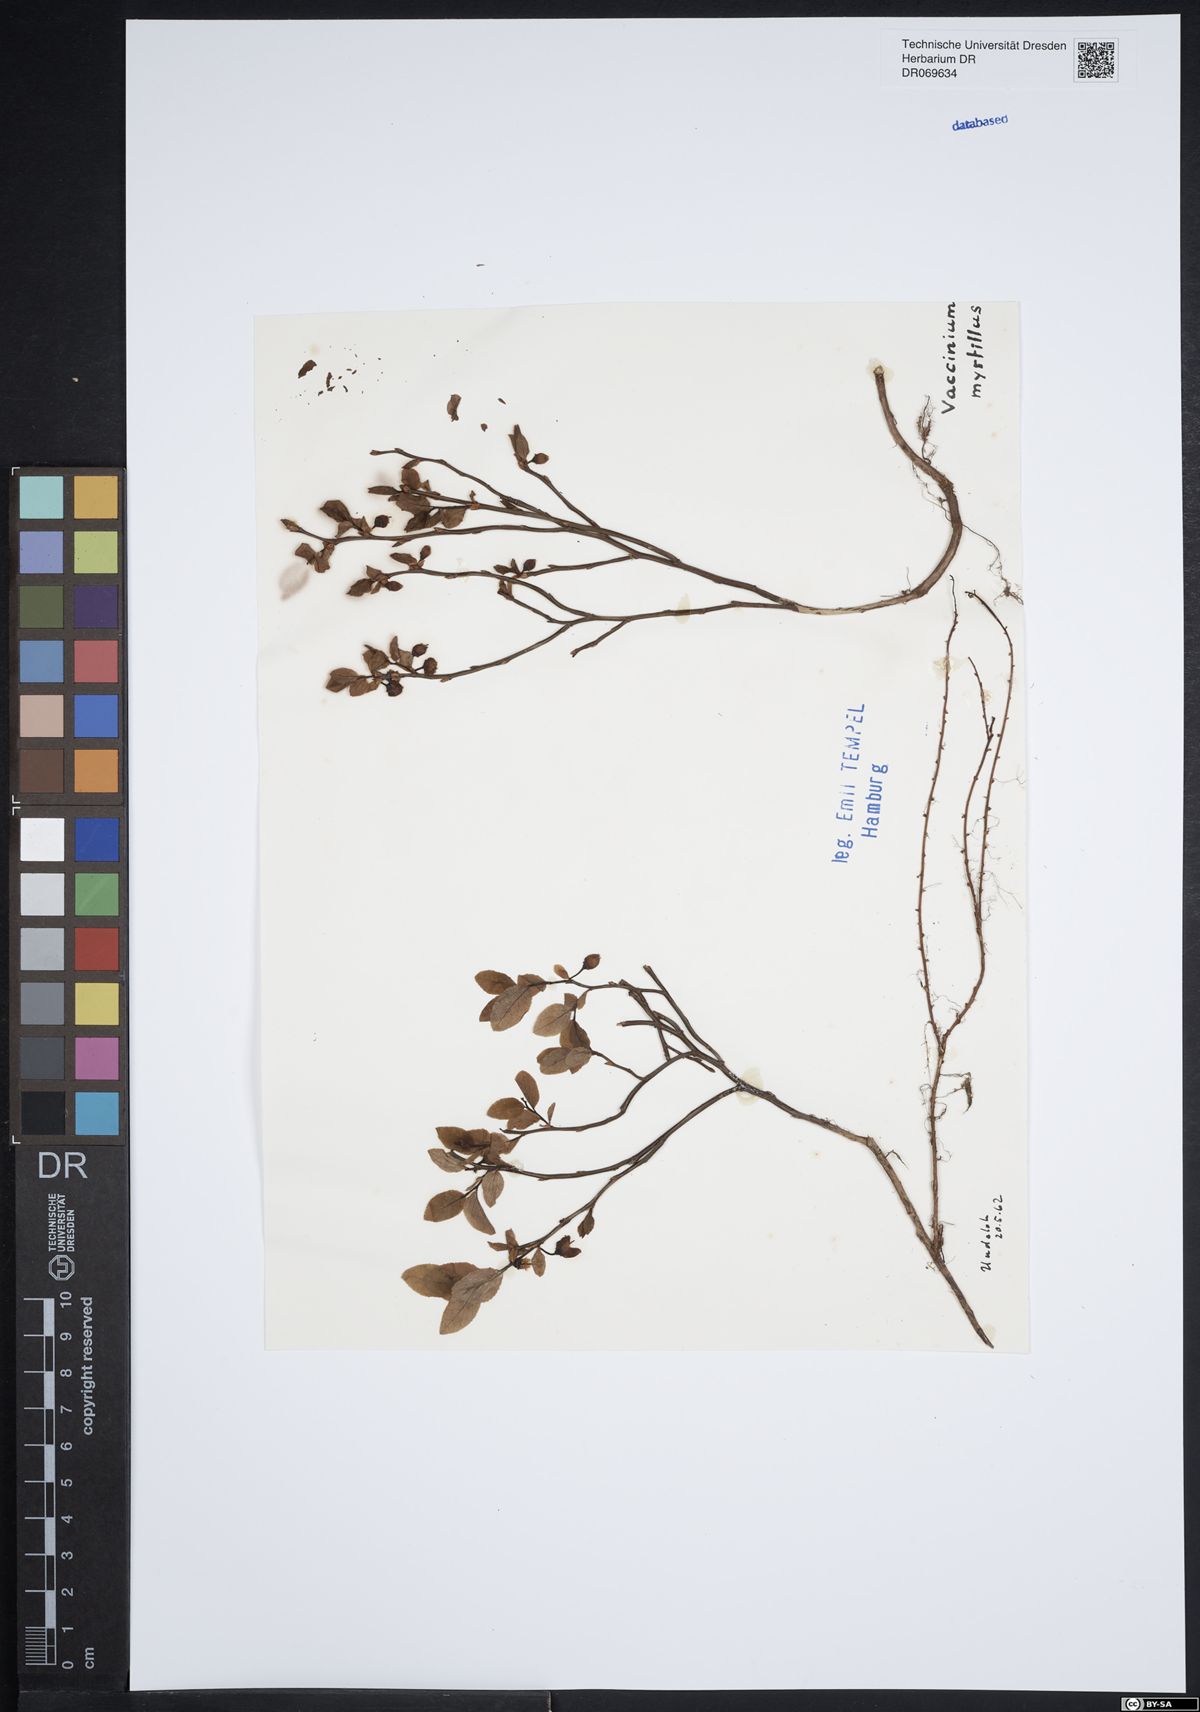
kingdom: Plantae
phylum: Tracheophyta
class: Magnoliopsida
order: Ericales
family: Ericaceae
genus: Vaccinium
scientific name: Vaccinium myrtillus
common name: Bilberry
